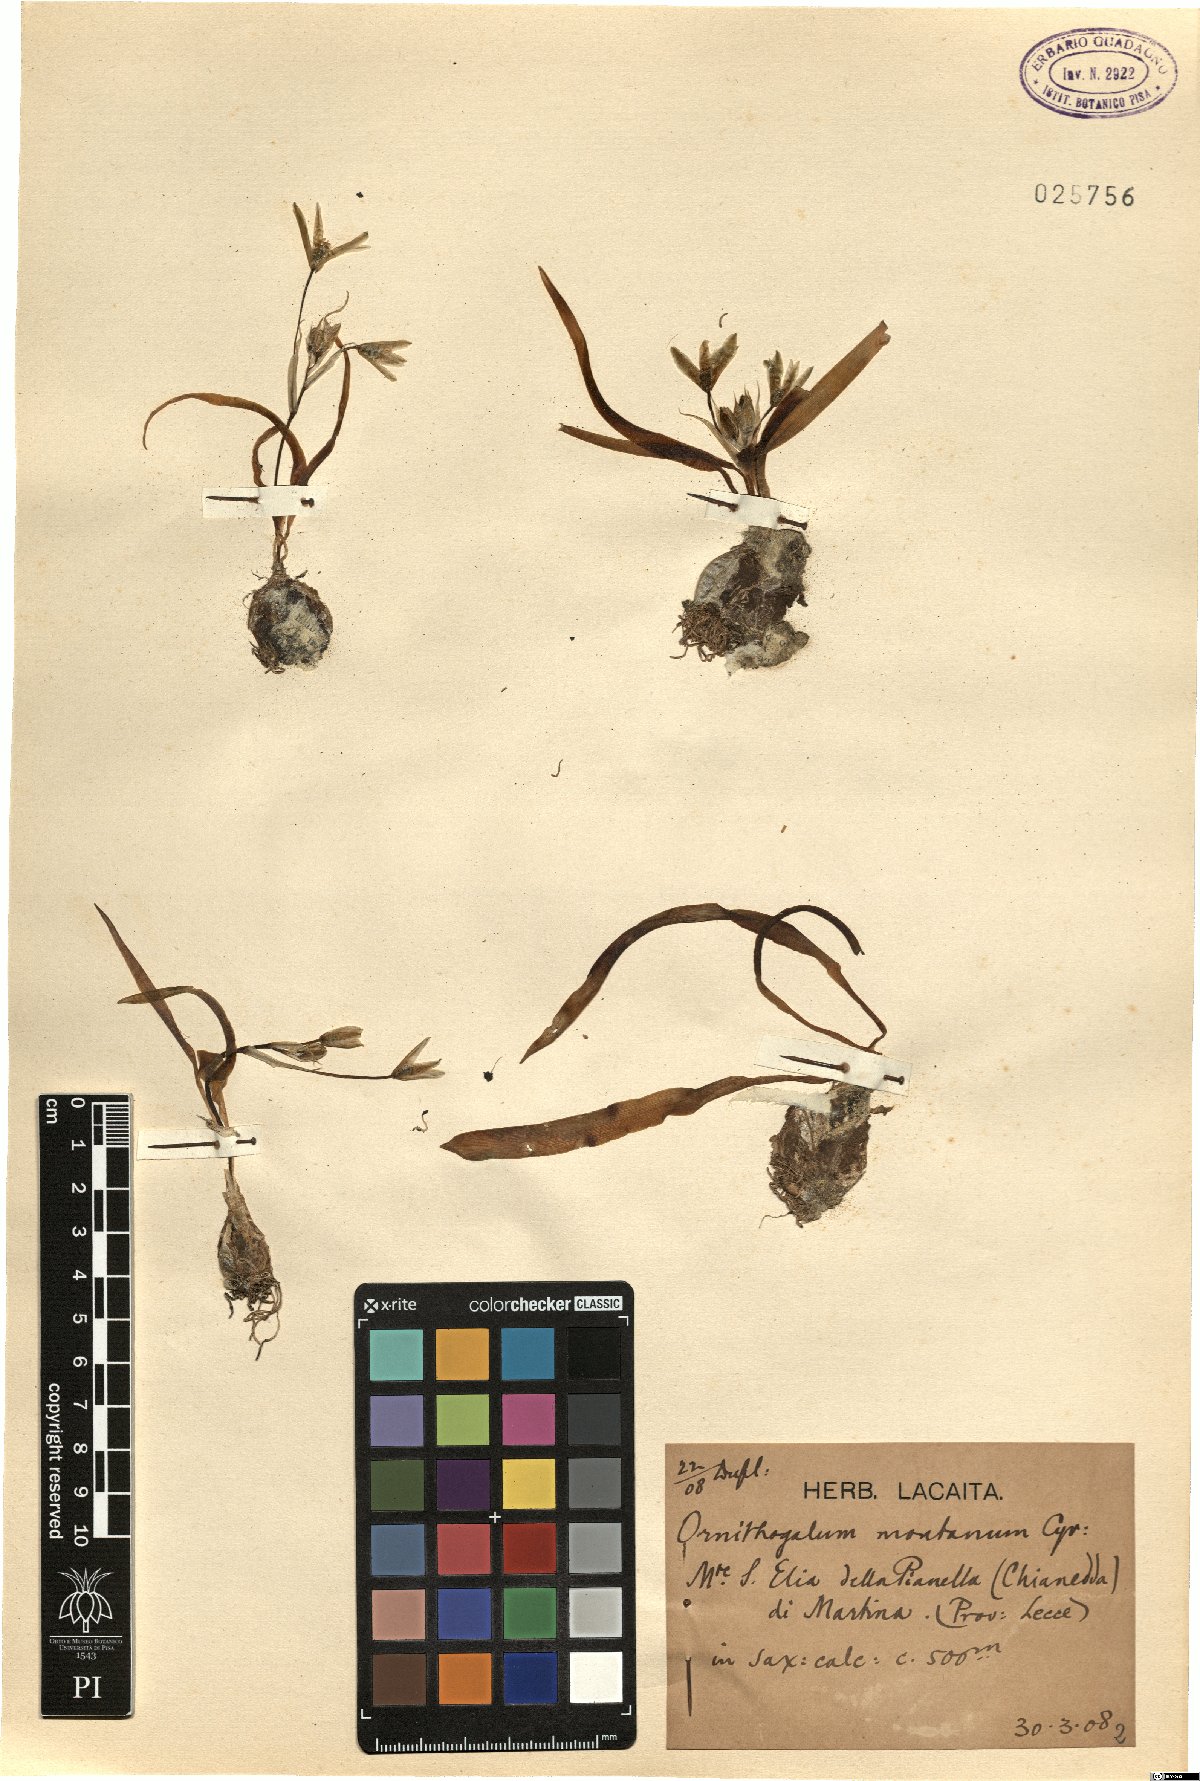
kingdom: Plantae
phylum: Tracheophyta
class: Liliopsida
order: Asparagales
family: Asparagaceae
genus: Ornithogalum
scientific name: Ornithogalum montanum
